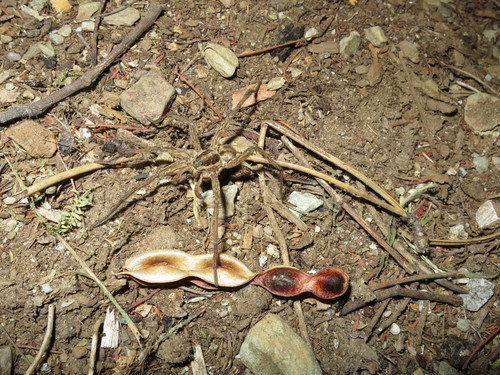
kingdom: Animalia
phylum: Arthropoda
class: Arachnida
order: Araneae
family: Lycosidae
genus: Hogna
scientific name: Hogna radiata
